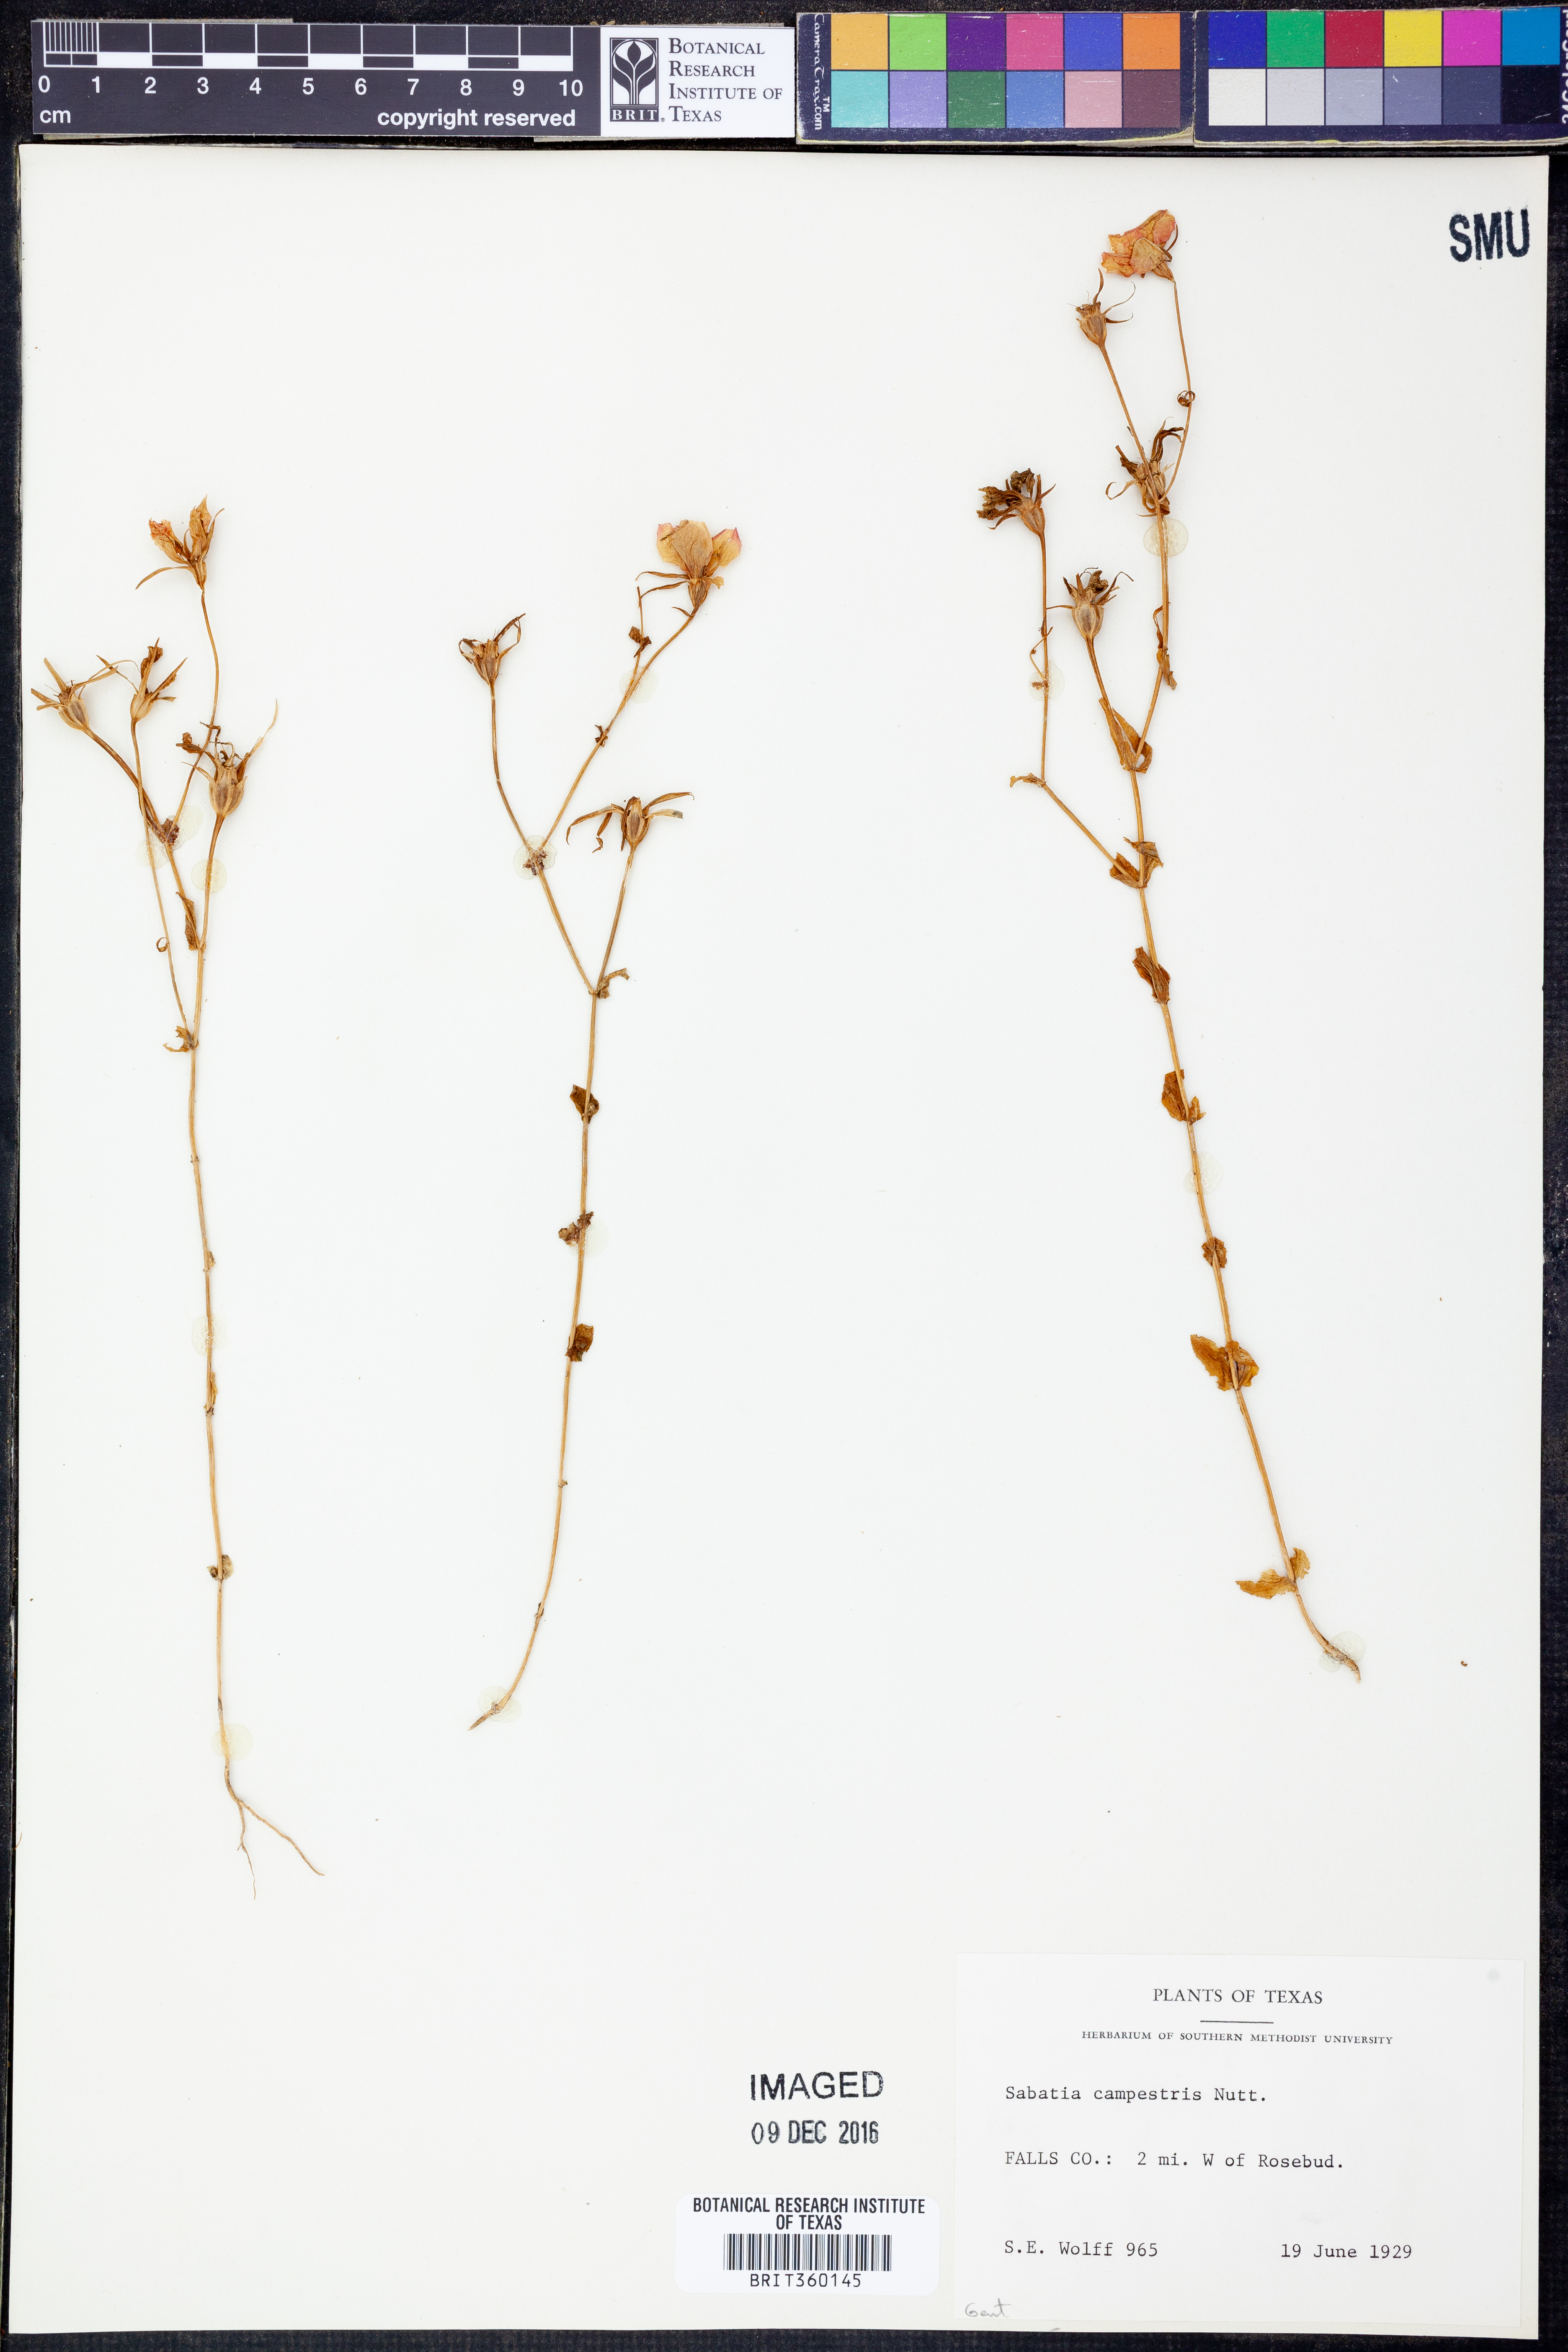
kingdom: Plantae
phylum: Tracheophyta
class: Magnoliopsida
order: Gentianales
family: Gentianaceae
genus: Sabatia
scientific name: Sabatia campestris
